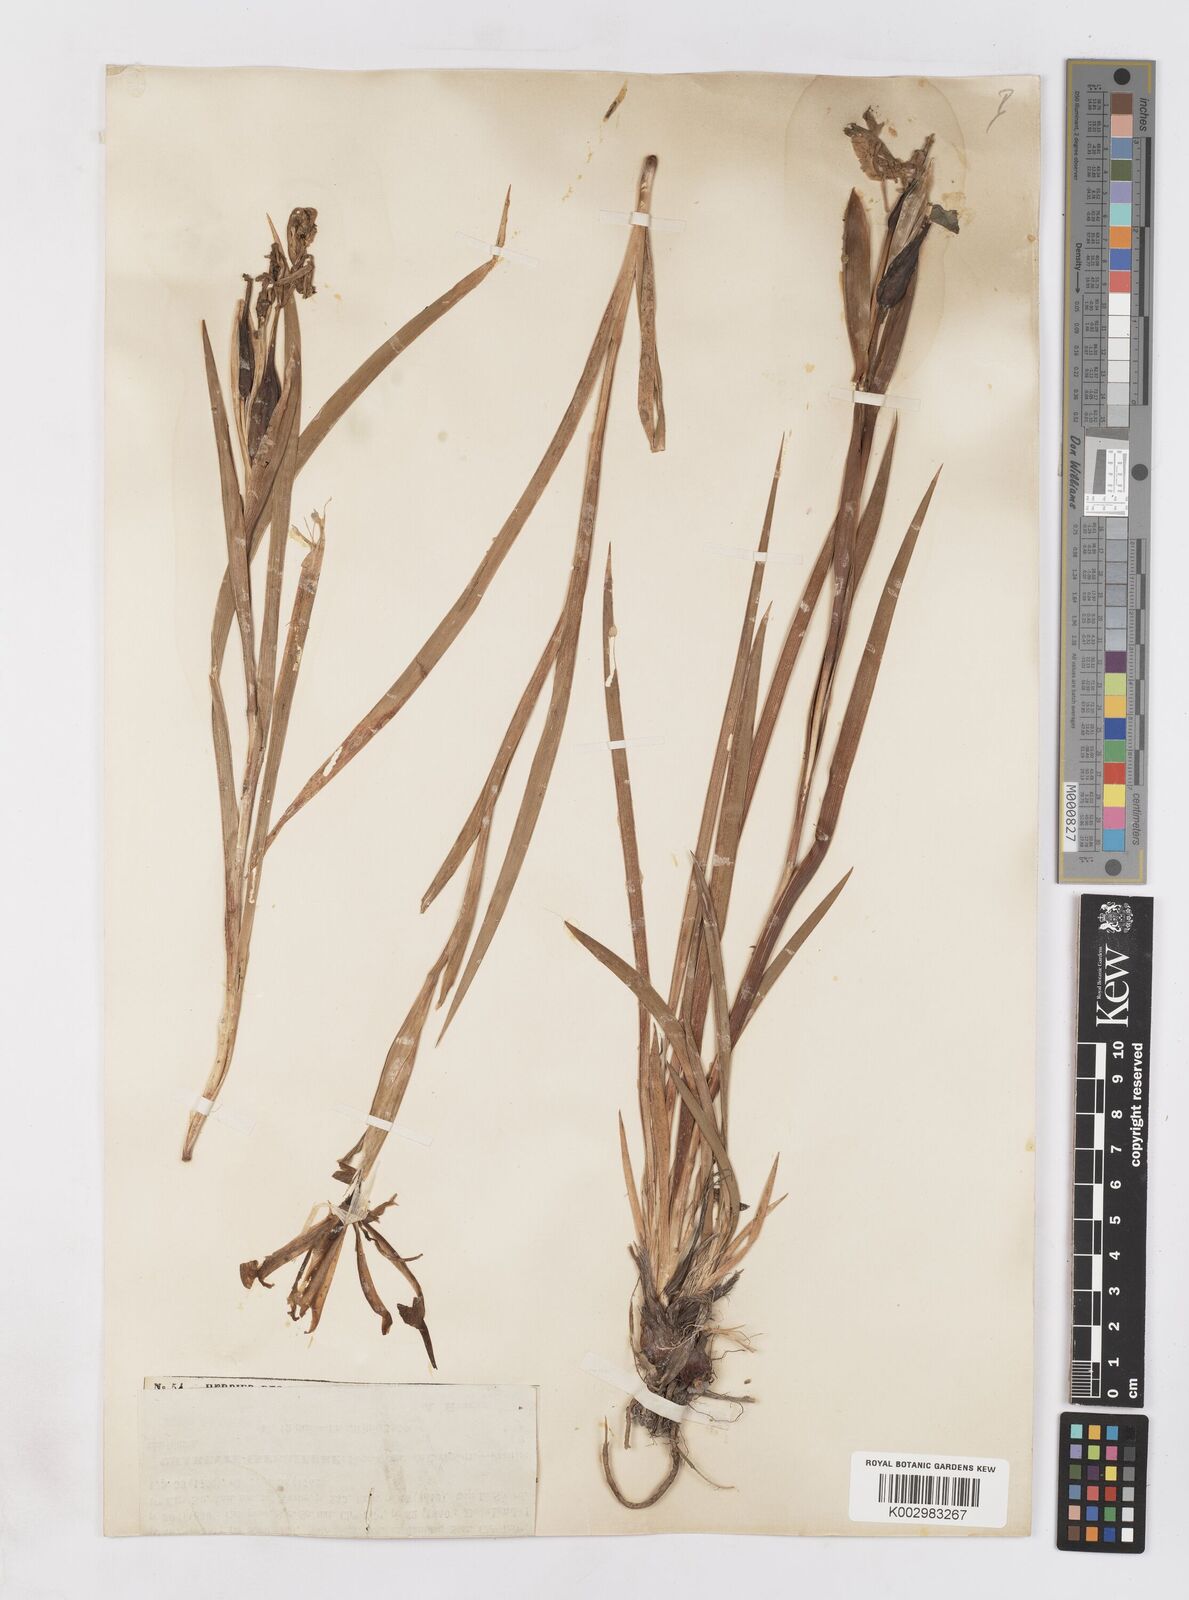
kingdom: Plantae
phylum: Tracheophyta
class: Liliopsida
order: Asparagales
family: Iridaceae
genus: Iris
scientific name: Iris spuria
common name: Blue iris
